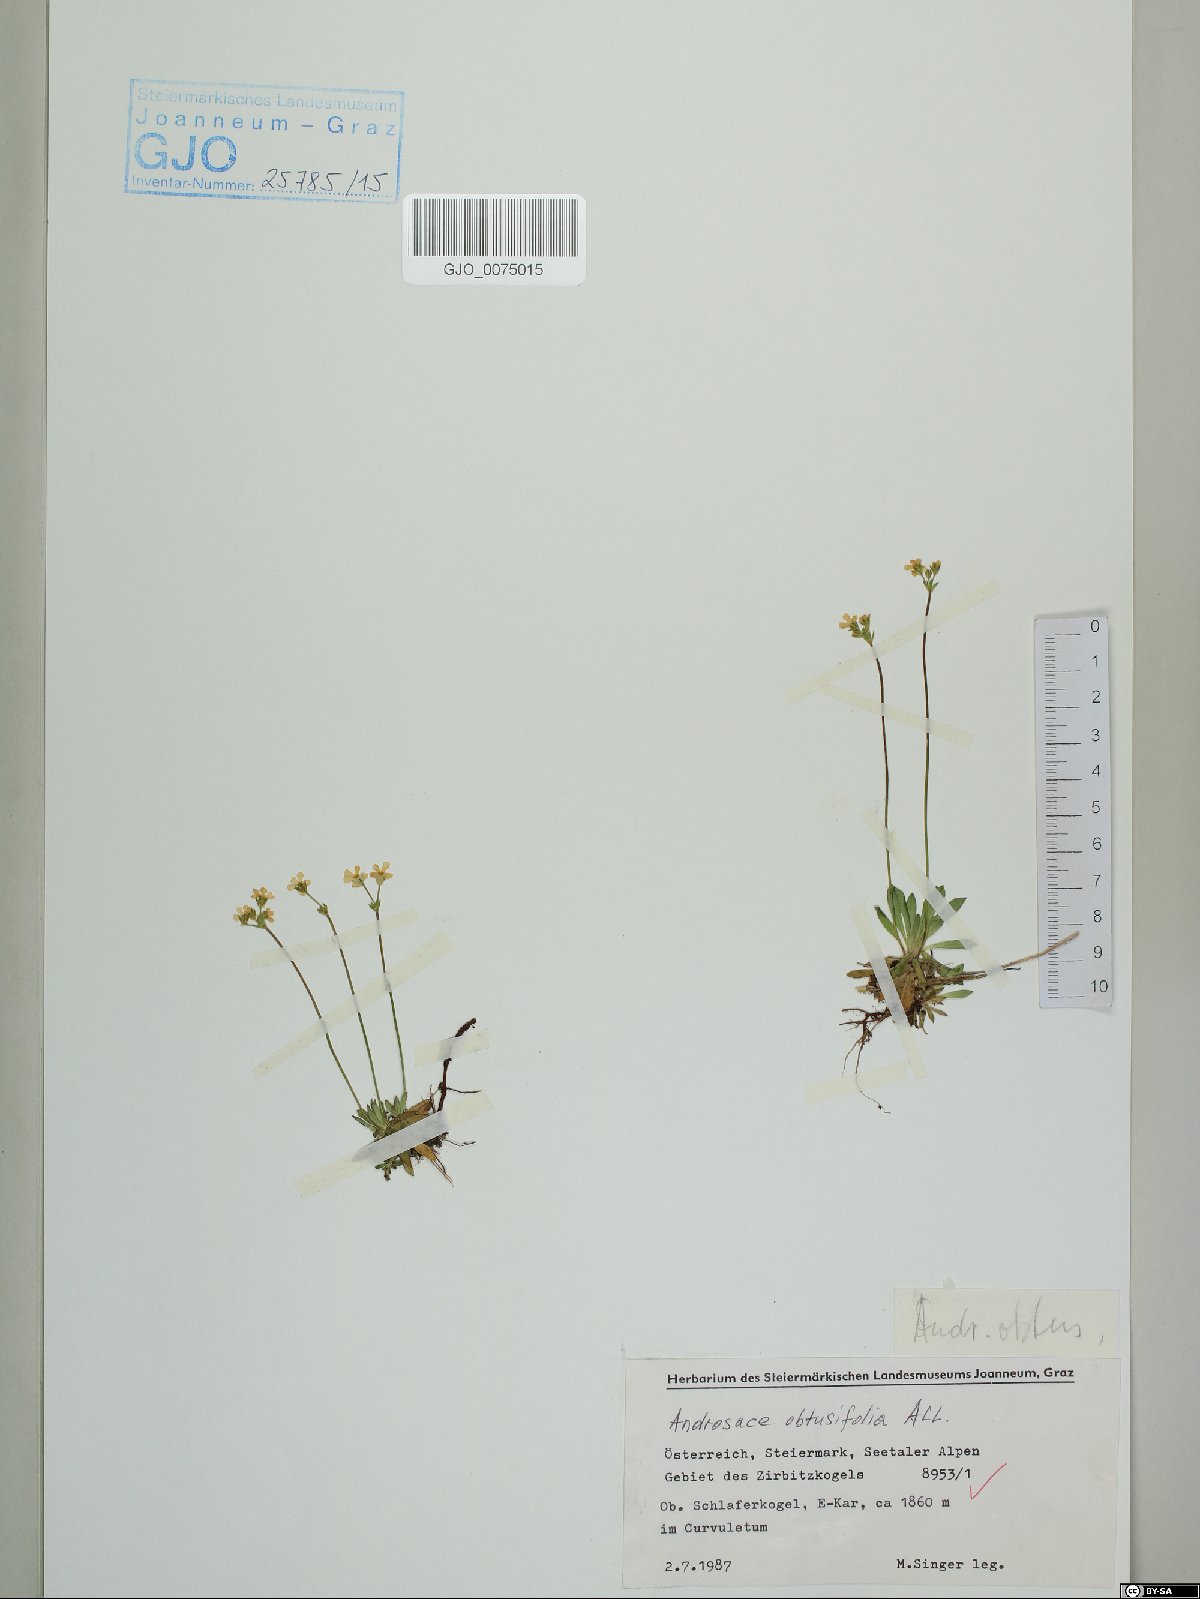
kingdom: Plantae
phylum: Tracheophyta
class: Magnoliopsida
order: Ericales
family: Primulaceae
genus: Androsace
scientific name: Androsace obtusifolia
